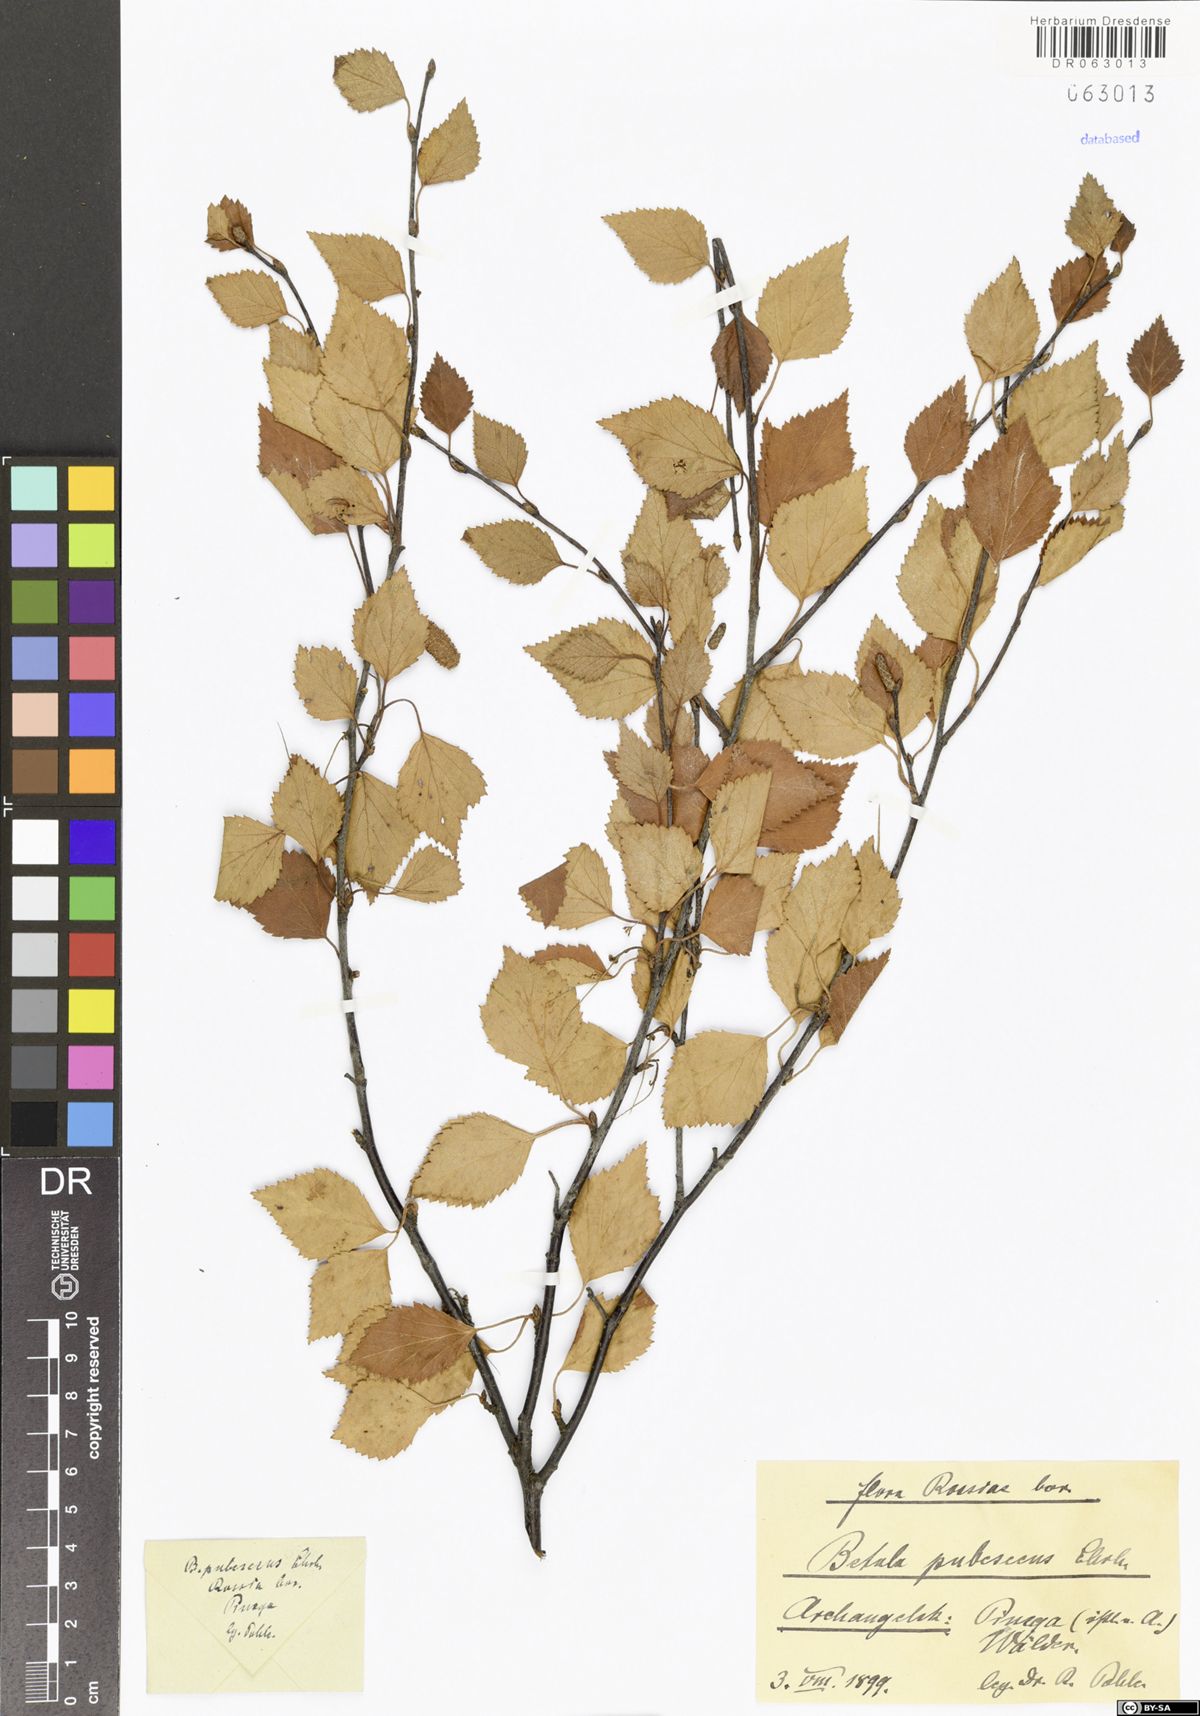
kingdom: Plantae
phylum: Tracheophyta
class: Magnoliopsida
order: Fagales
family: Betulaceae
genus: Betula
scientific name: Betula pubescens
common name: Downy birch
